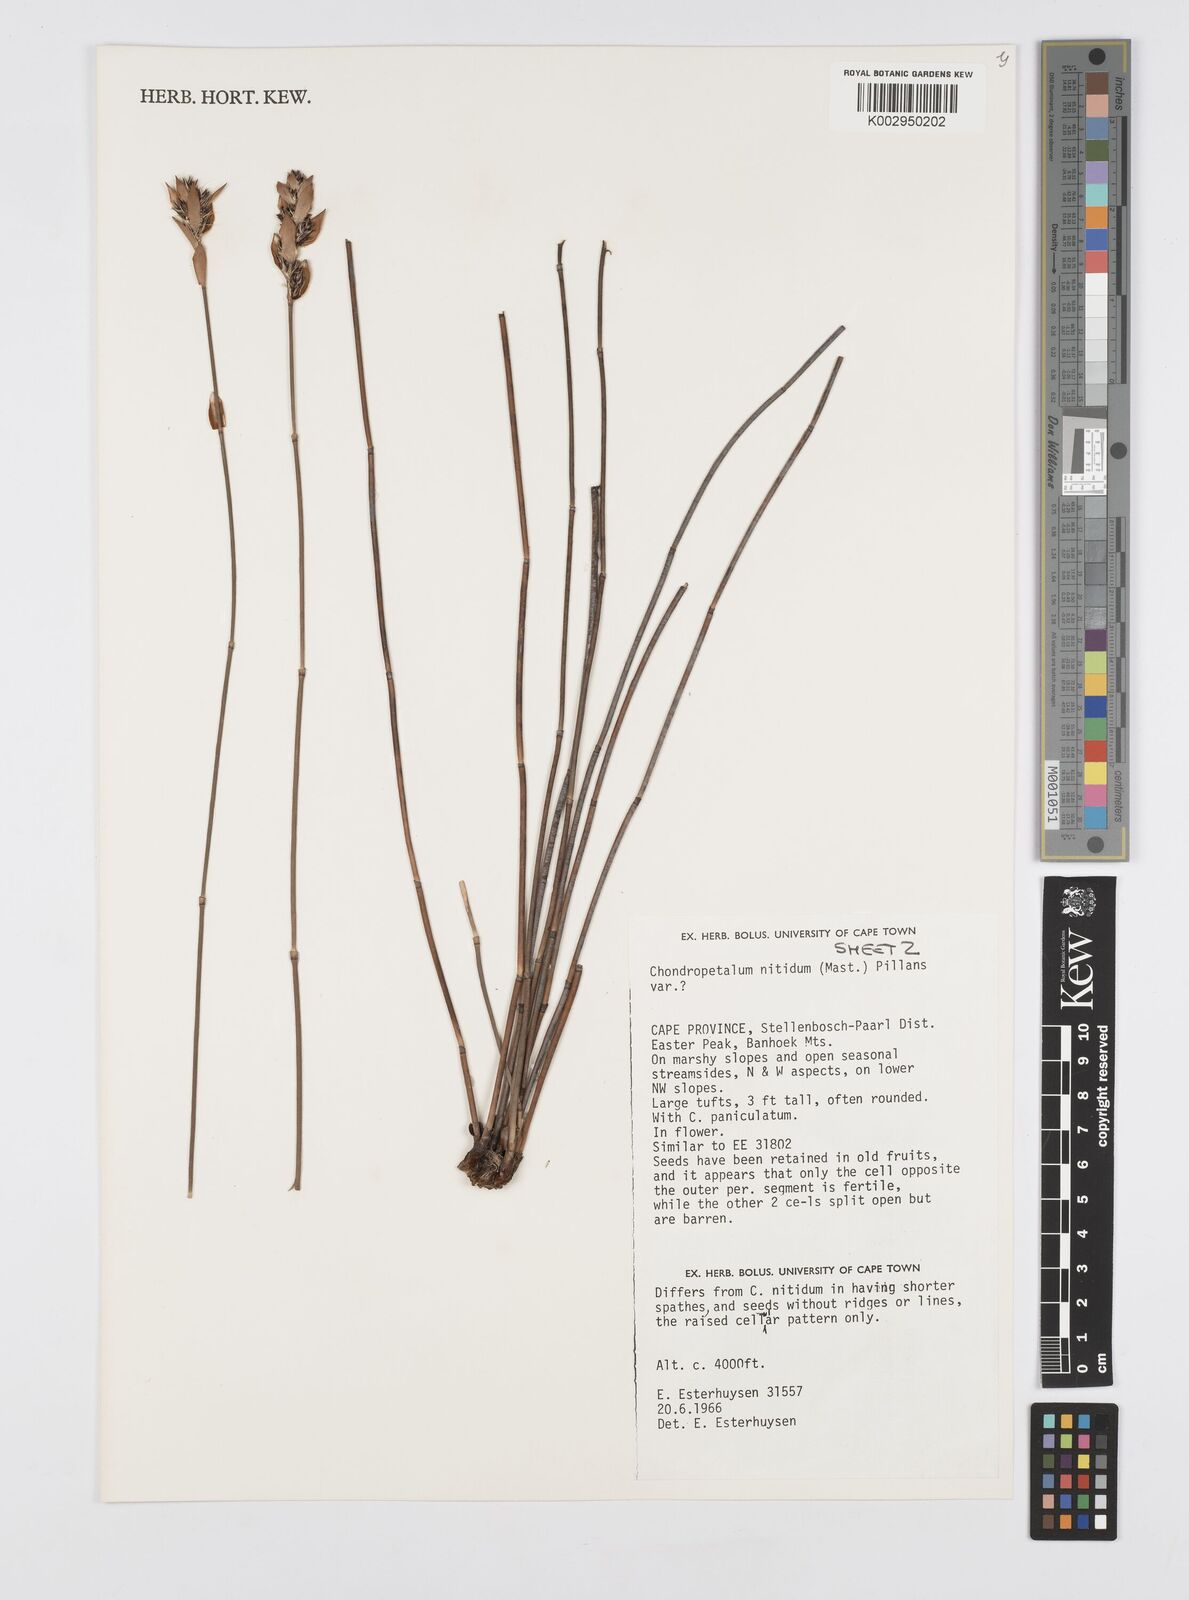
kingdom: Plantae
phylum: Tracheophyta
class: Liliopsida
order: Poales
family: Restionaceae
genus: Askidiosperma
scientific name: Askidiosperma nitidum
